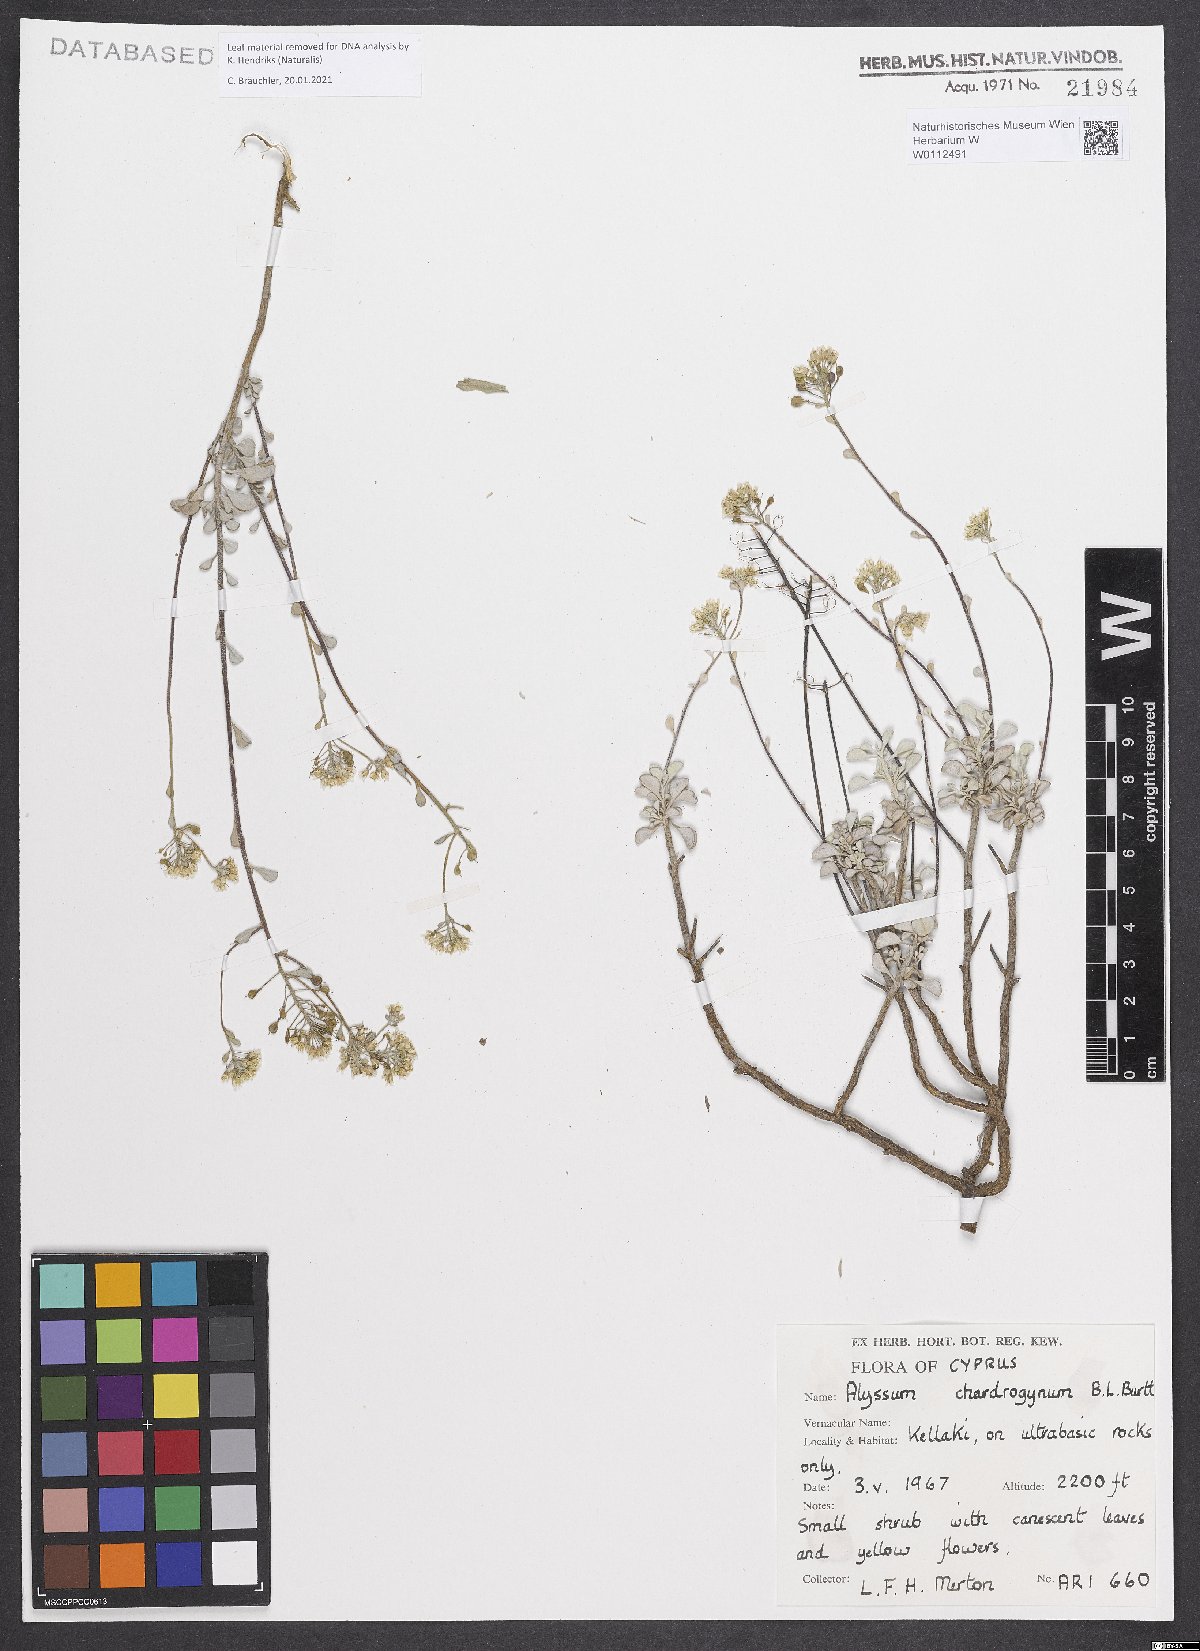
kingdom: Plantae
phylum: Tracheophyta
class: Magnoliopsida
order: Brassicales
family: Brassicaceae
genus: Odontarrhena
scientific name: Odontarrhena chondrogyna
